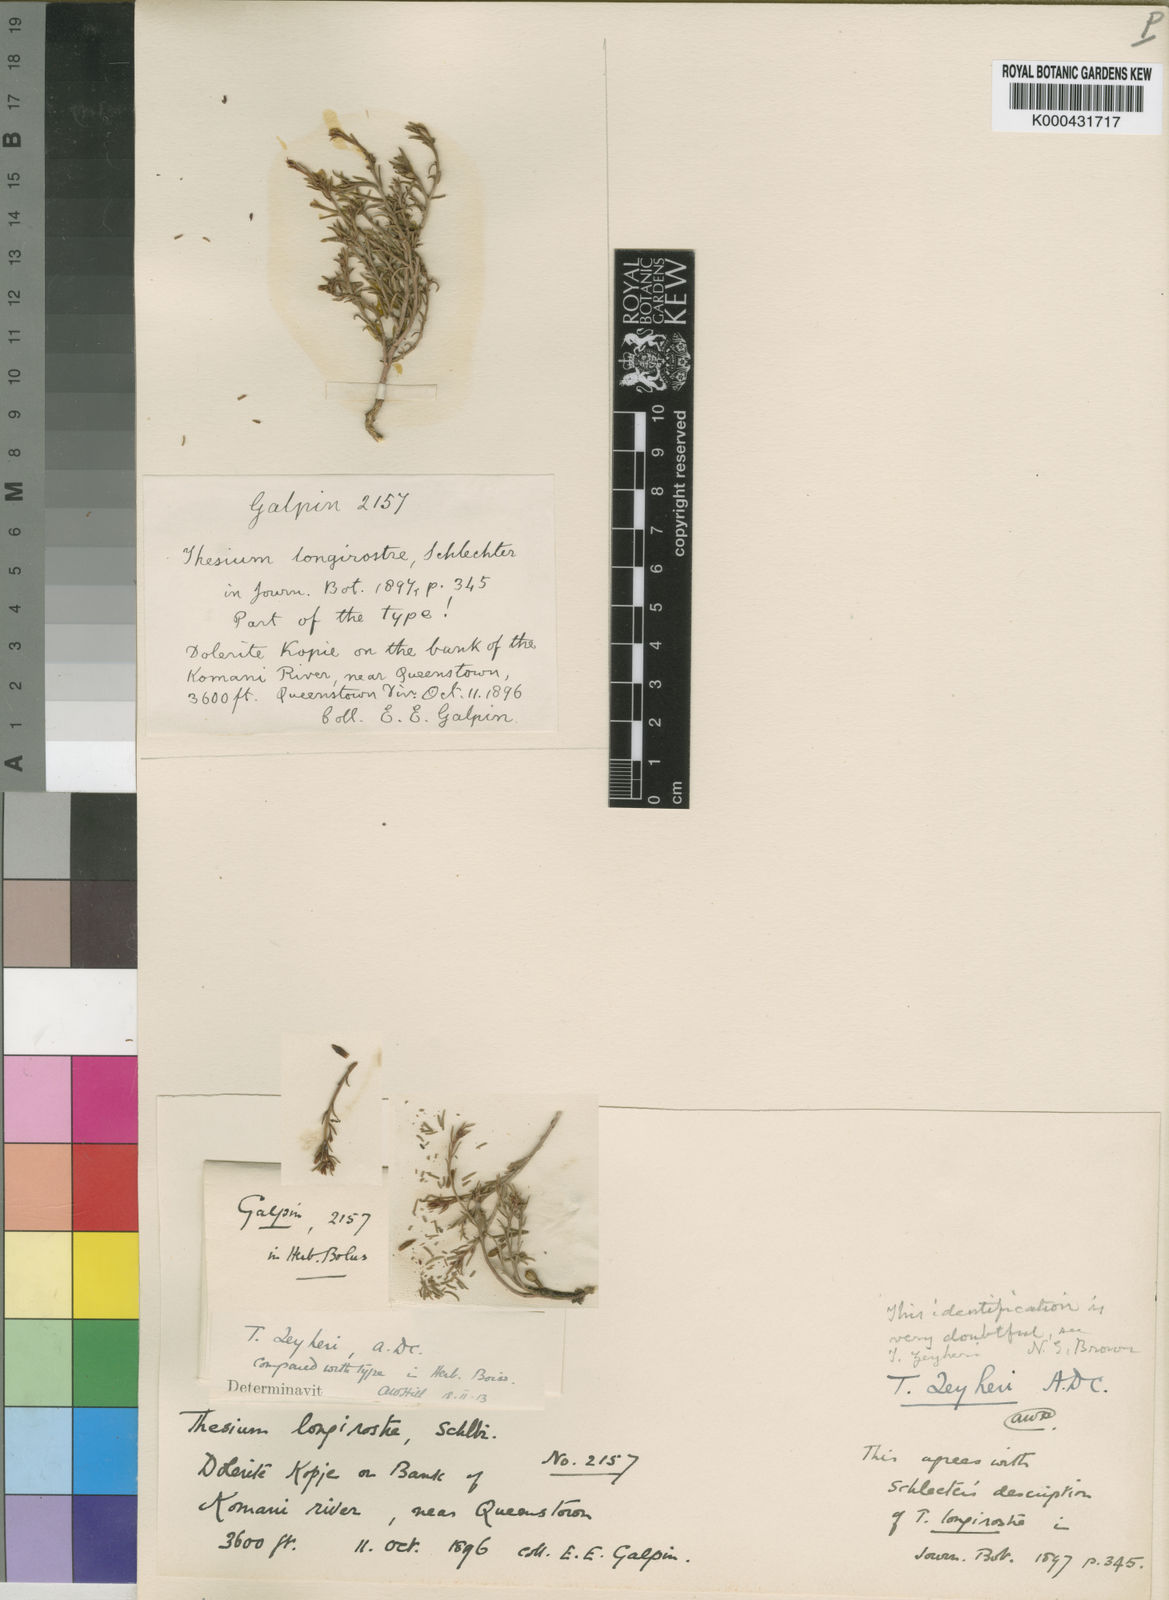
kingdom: Plantae
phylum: Tracheophyta
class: Magnoliopsida
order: Santalales
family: Thesiaceae
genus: Thesium
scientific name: Thesium zeyheri
